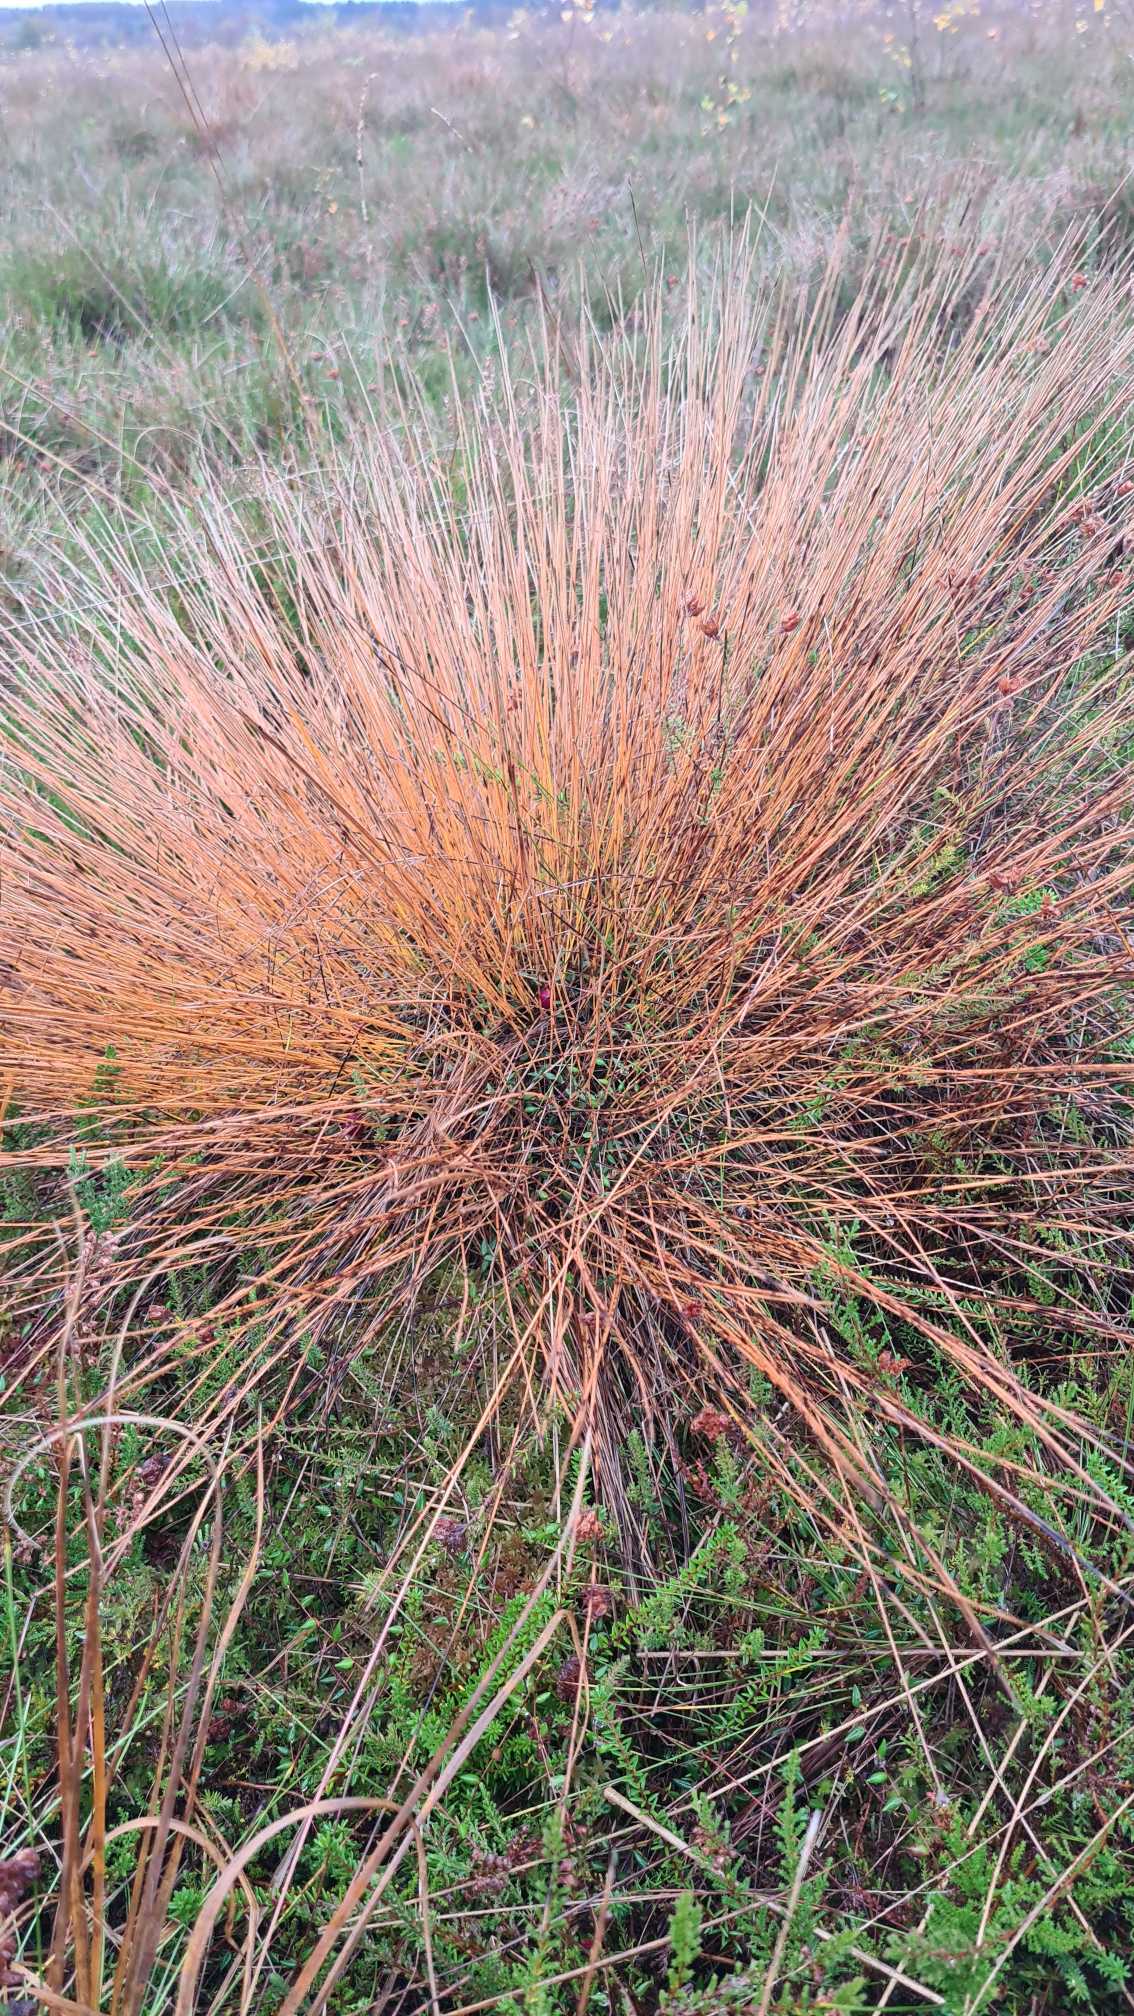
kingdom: Plantae
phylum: Tracheophyta
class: Liliopsida
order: Poales
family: Cyperaceae
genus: Trichophorum
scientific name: Trichophorum cespitosum
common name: Tuekogleaks
